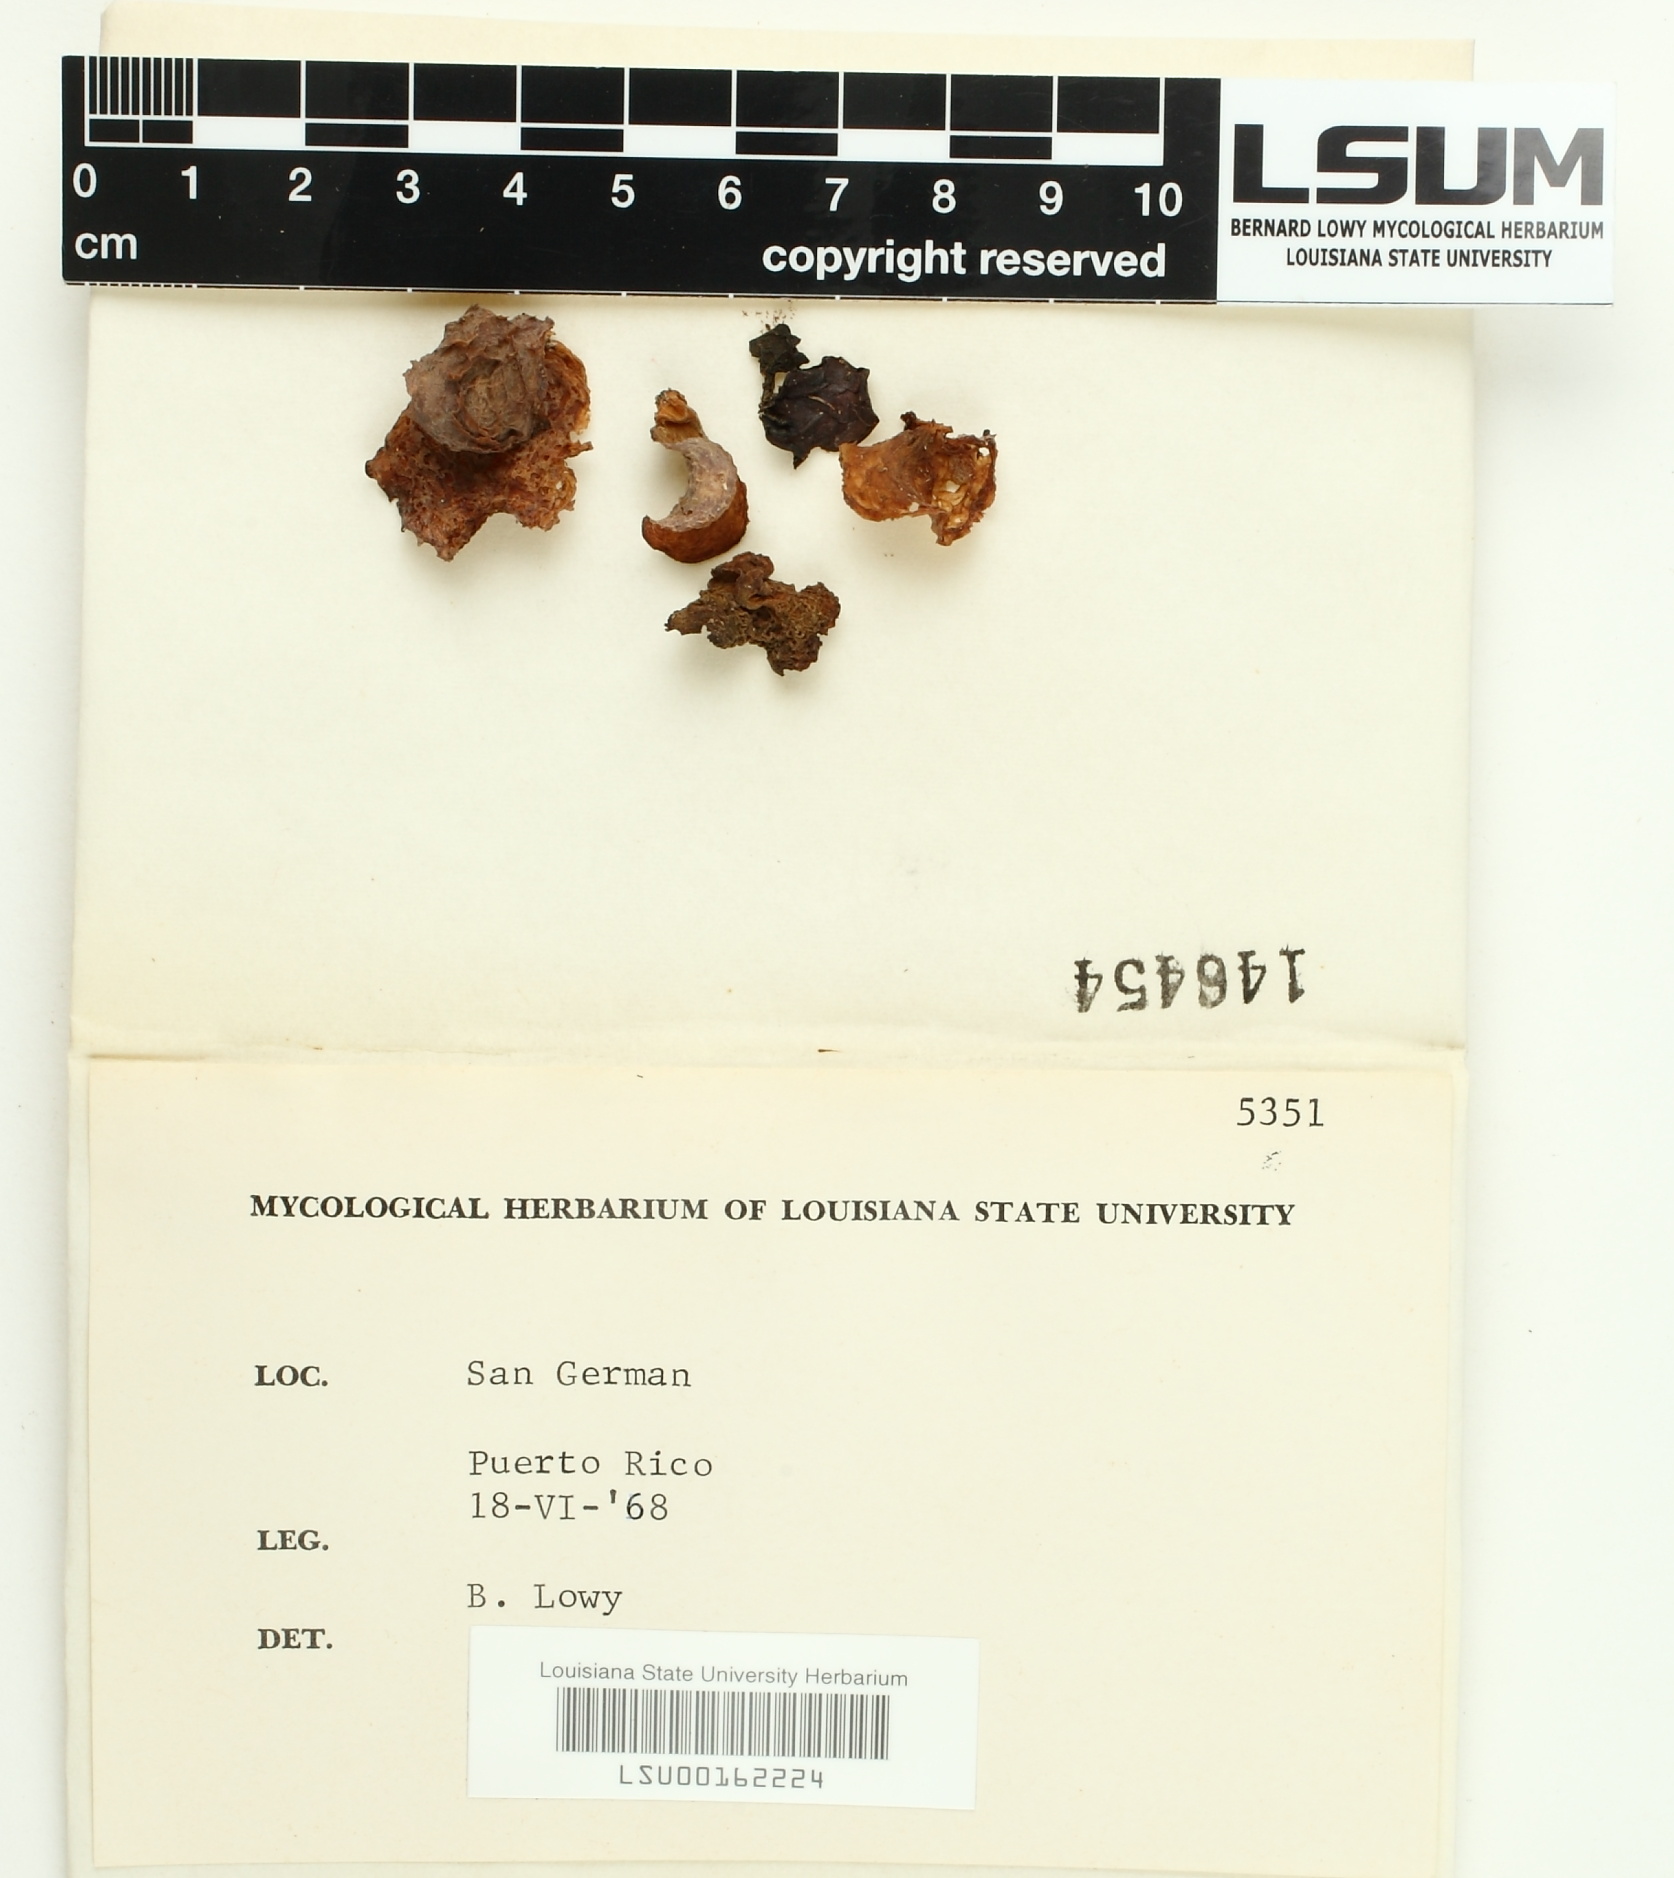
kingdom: Fungi
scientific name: Fungi
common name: Fungi
